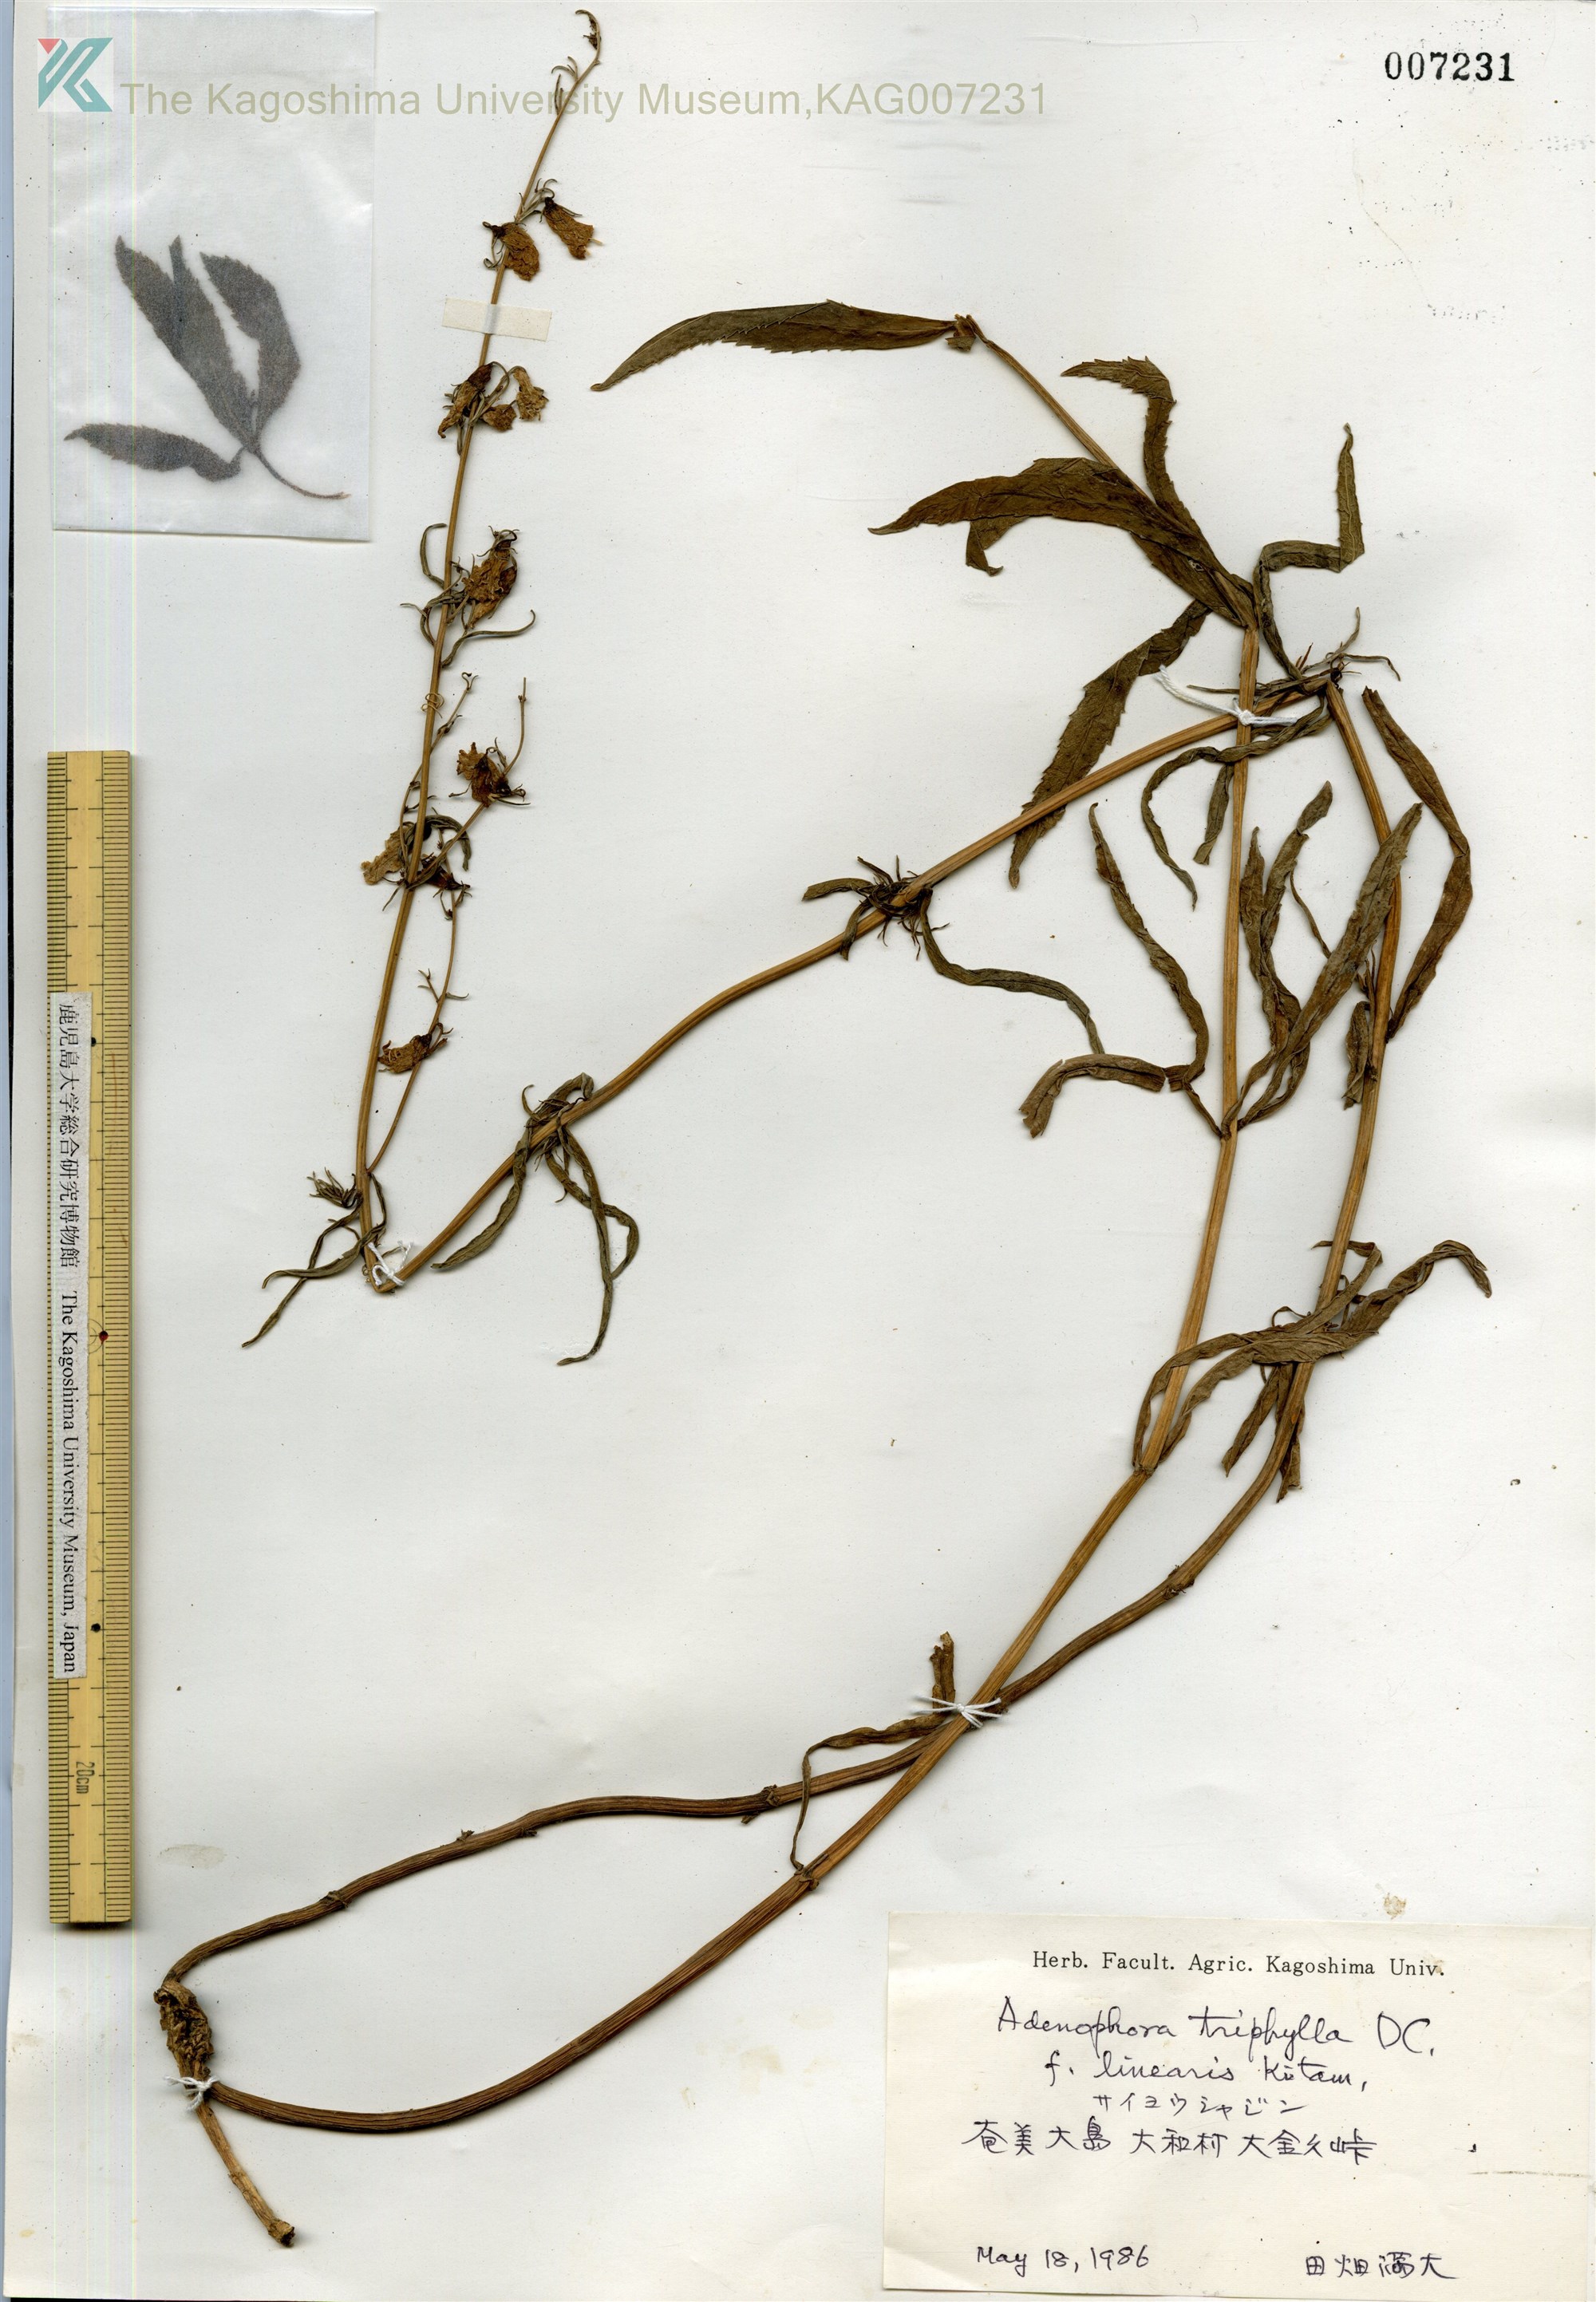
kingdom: Plantae
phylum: Tracheophyta
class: Magnoliopsida
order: Asterales
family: Campanulaceae
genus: Adenophora
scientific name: Adenophora tashiroi
